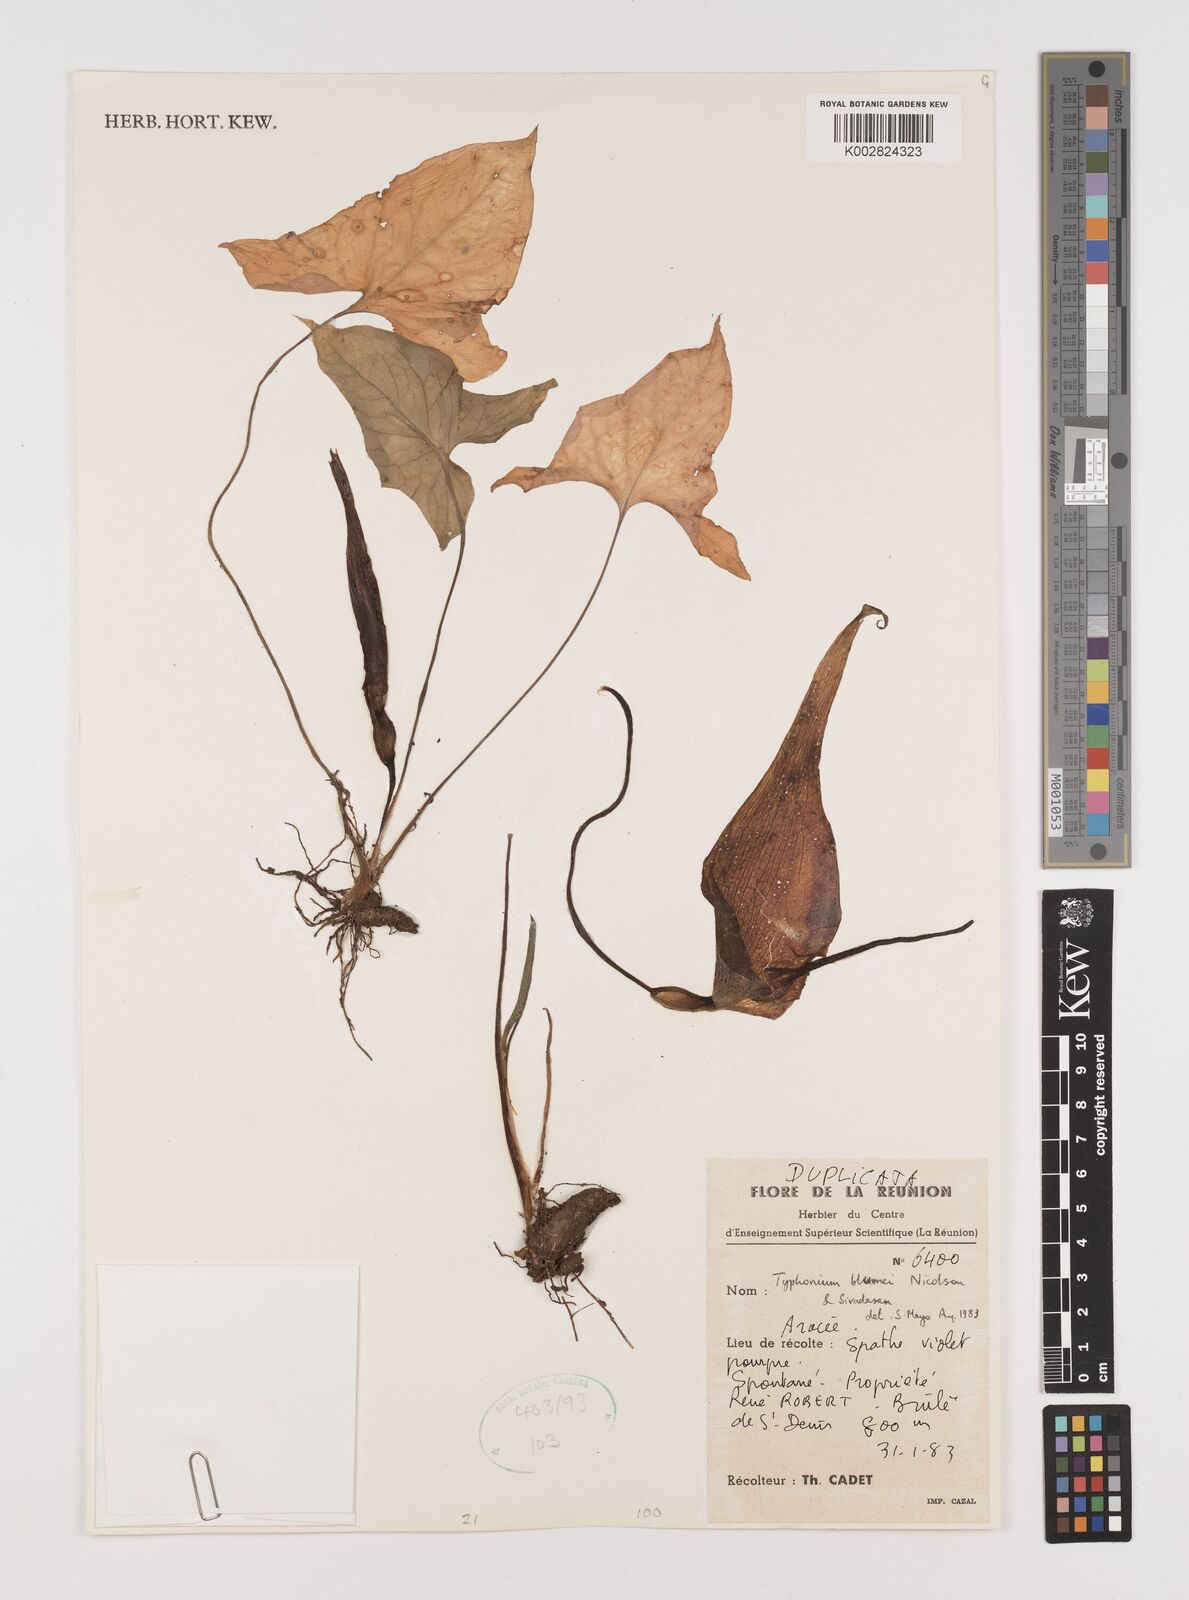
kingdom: Plantae
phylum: Tracheophyta
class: Liliopsida
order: Alismatales
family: Araceae
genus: Typhonium
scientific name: Typhonium blumei
